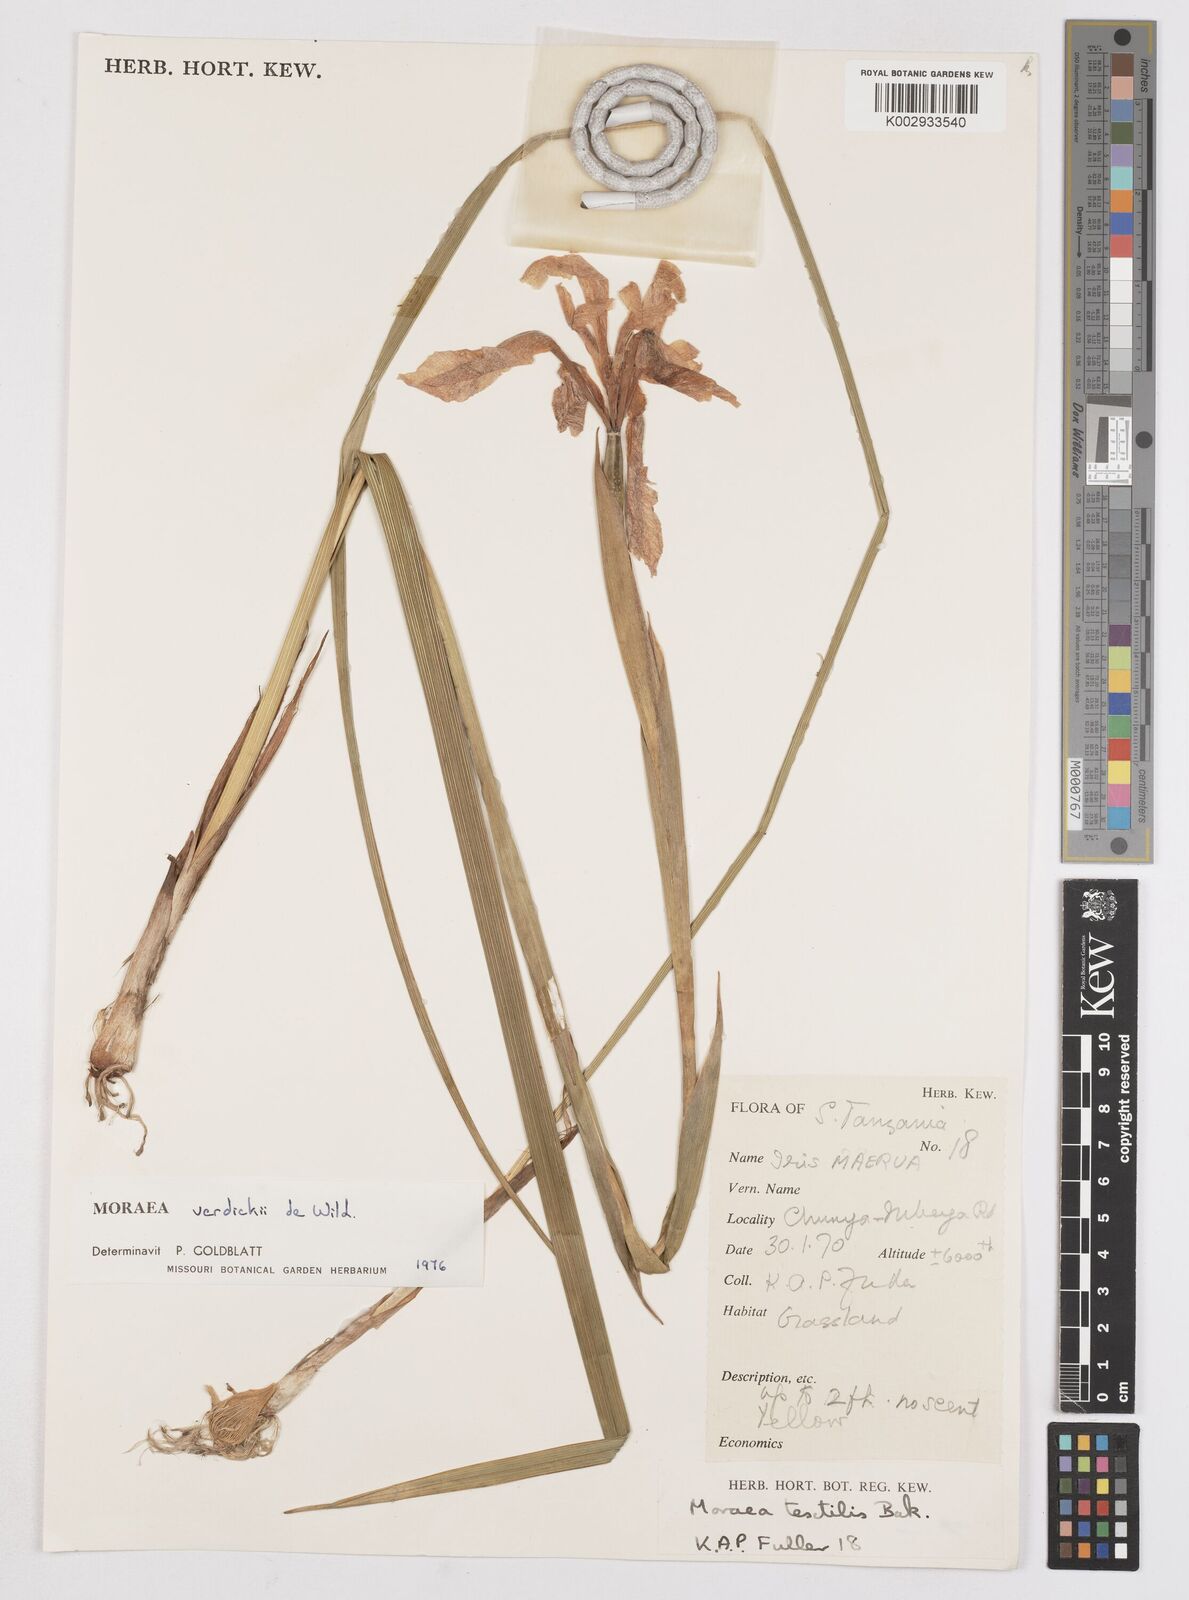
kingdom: Plantae
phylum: Tracheophyta
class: Liliopsida
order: Asparagales
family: Iridaceae
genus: Moraea
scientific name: Moraea verdickii
